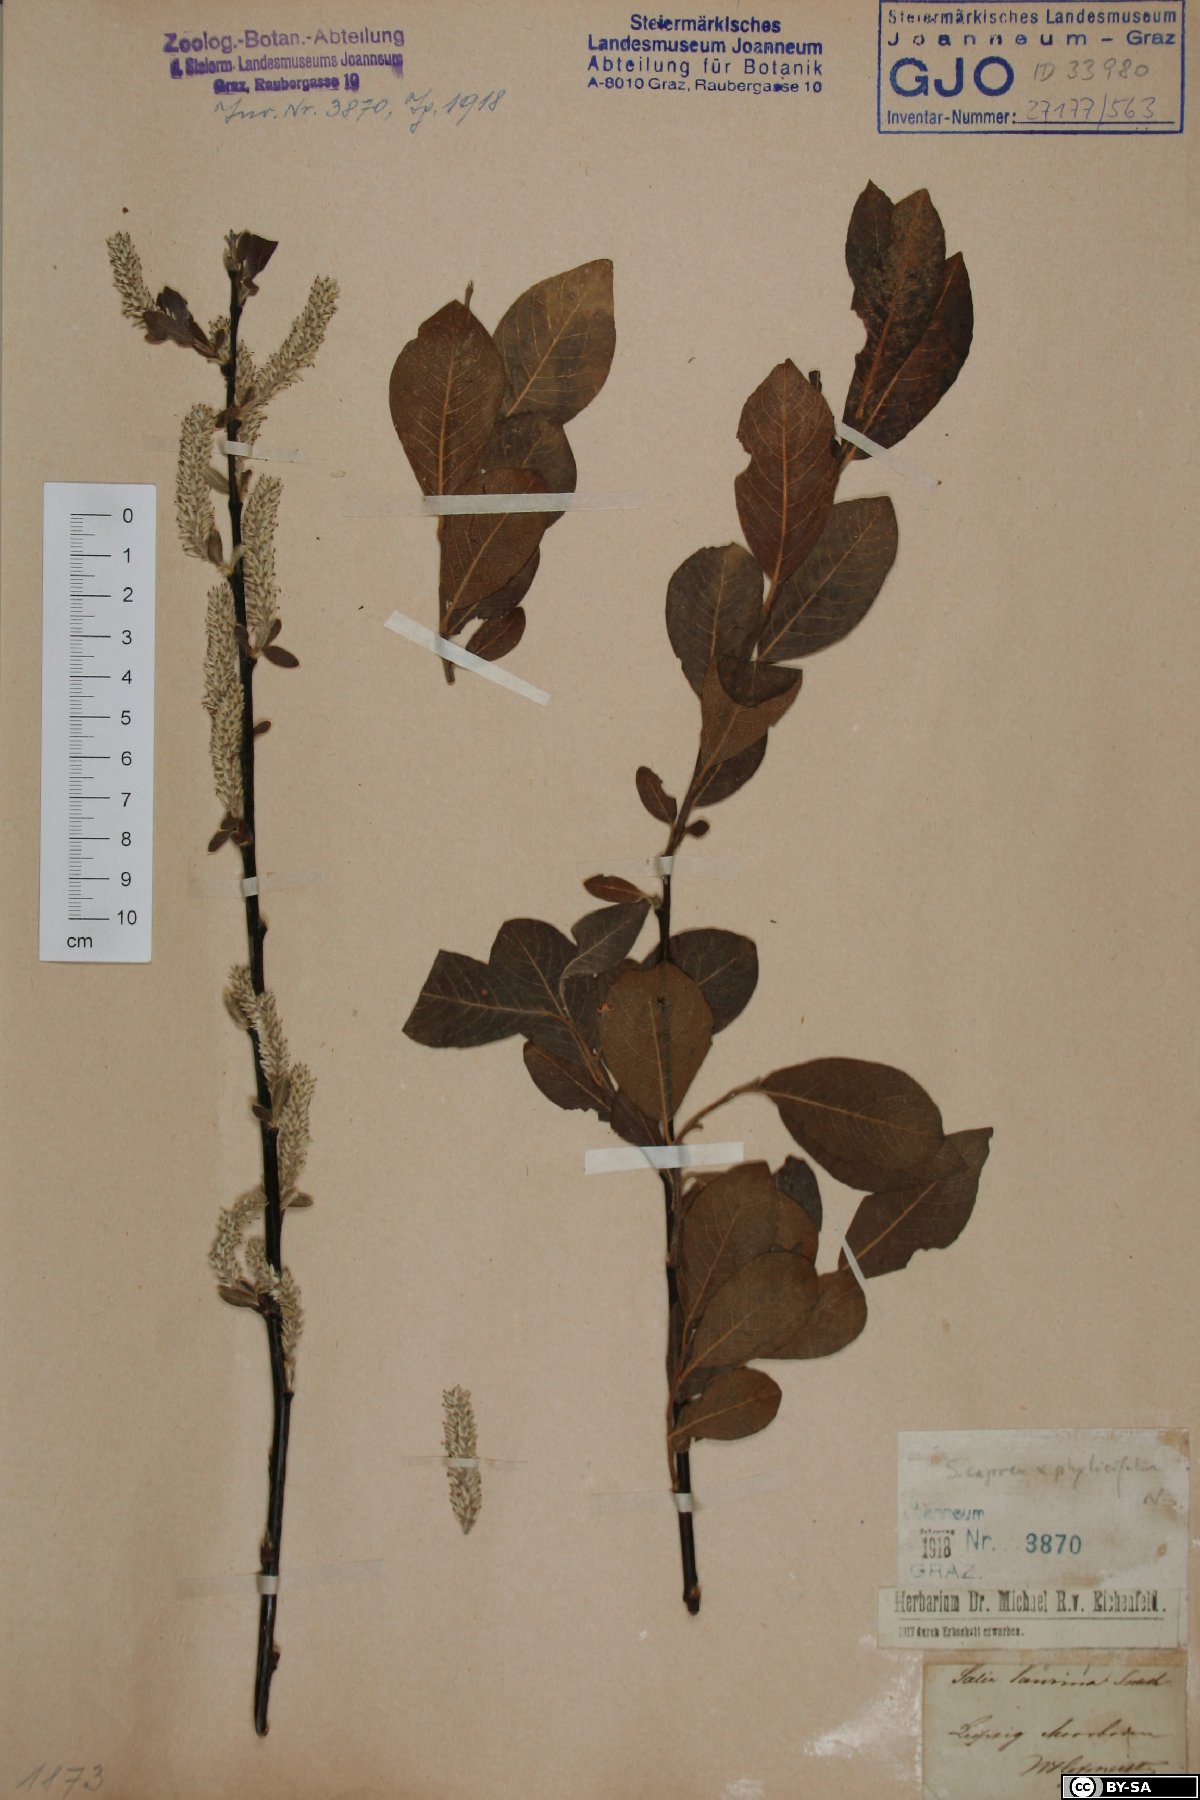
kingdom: Plantae
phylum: Tracheophyta
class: Magnoliopsida
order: Malpighiales
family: Salicaceae
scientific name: Salicaceae
